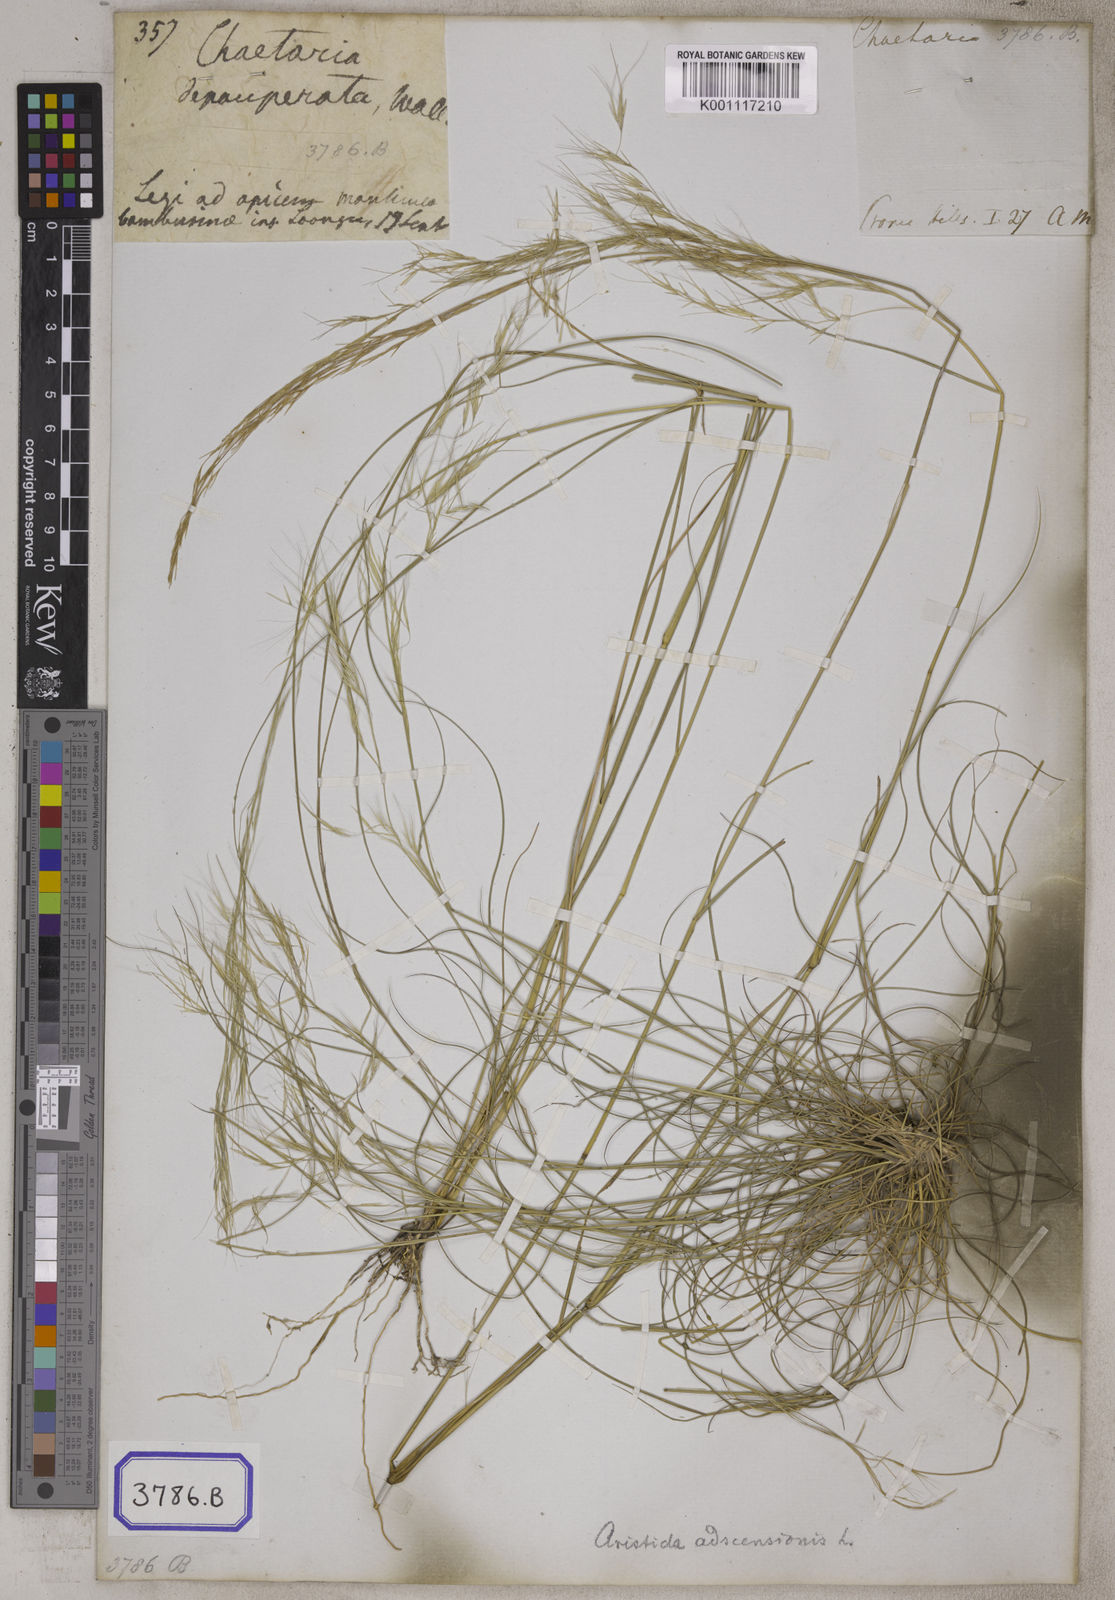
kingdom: Plantae
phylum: Tracheophyta
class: Liliopsida
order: Poales
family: Poaceae
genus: Aristida
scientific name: Aristida adscensionis
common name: Sixweeks threeawn
